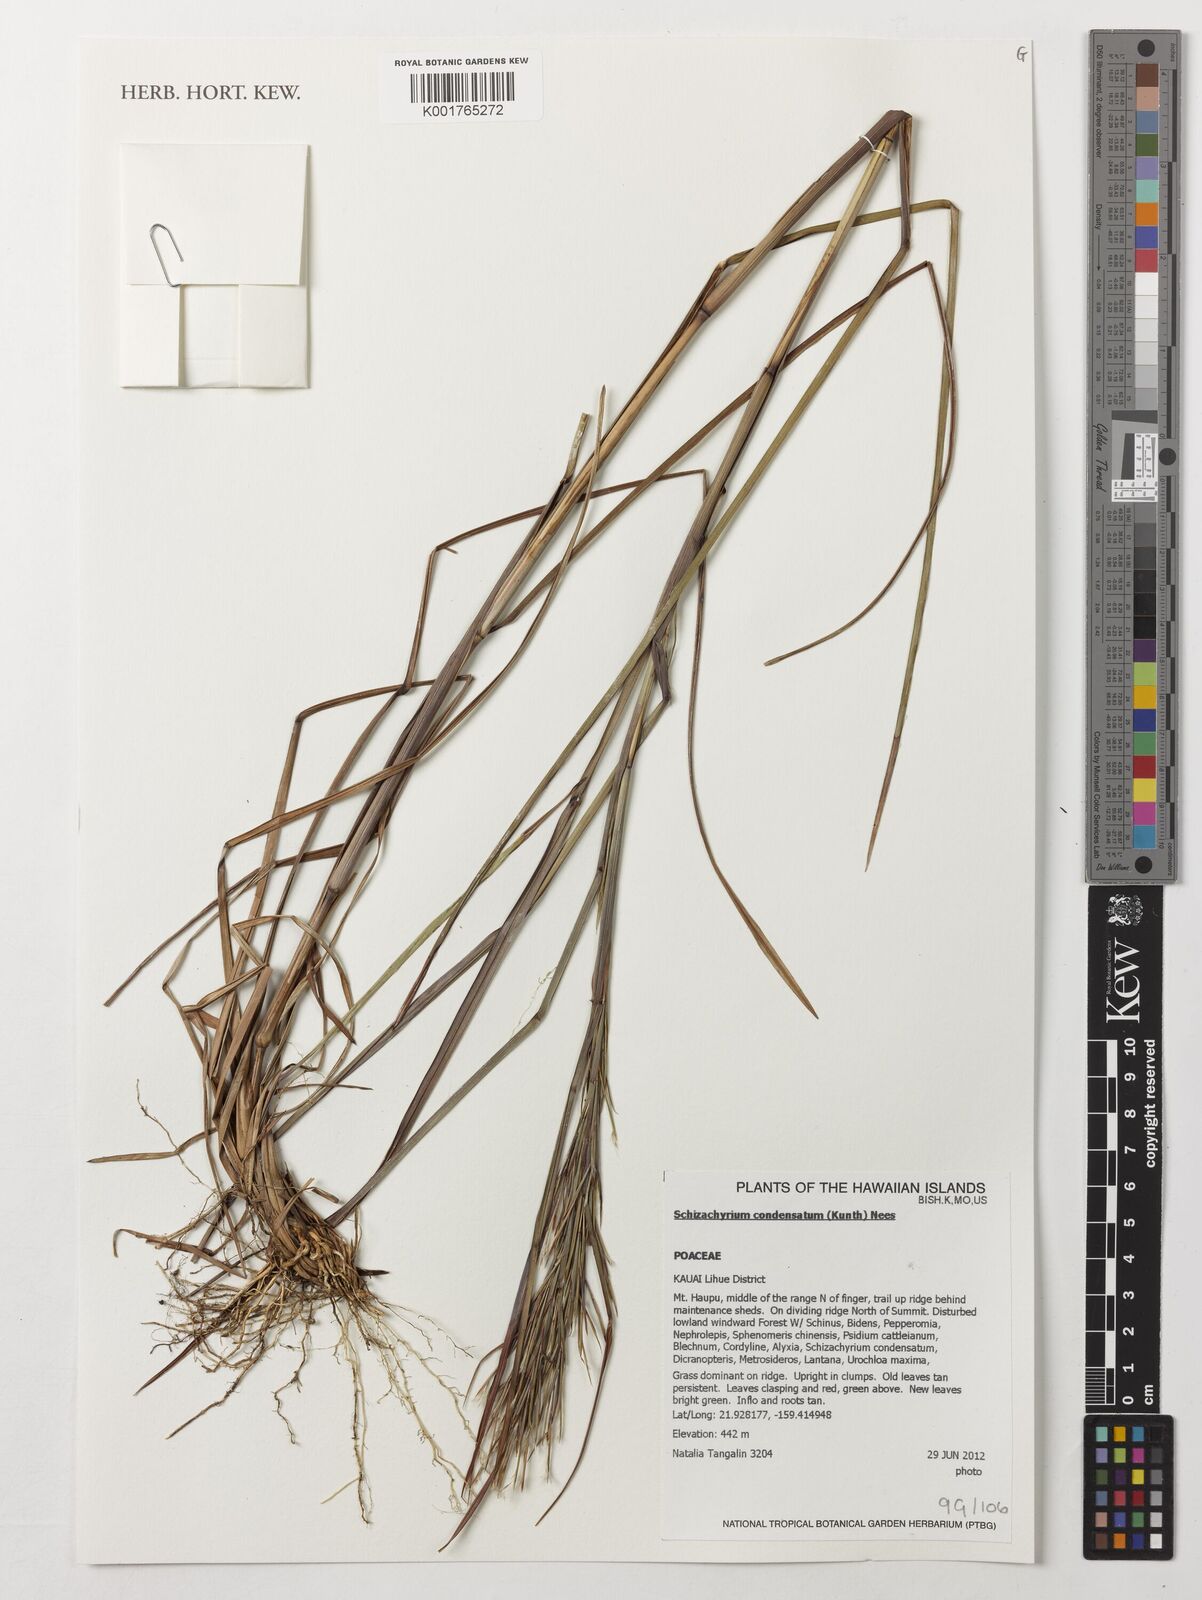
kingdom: Plantae
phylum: Tracheophyta
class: Liliopsida
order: Poales
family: Poaceae
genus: Schizachyrium
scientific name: Schizachyrium condensatum
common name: Bush beardgrass
